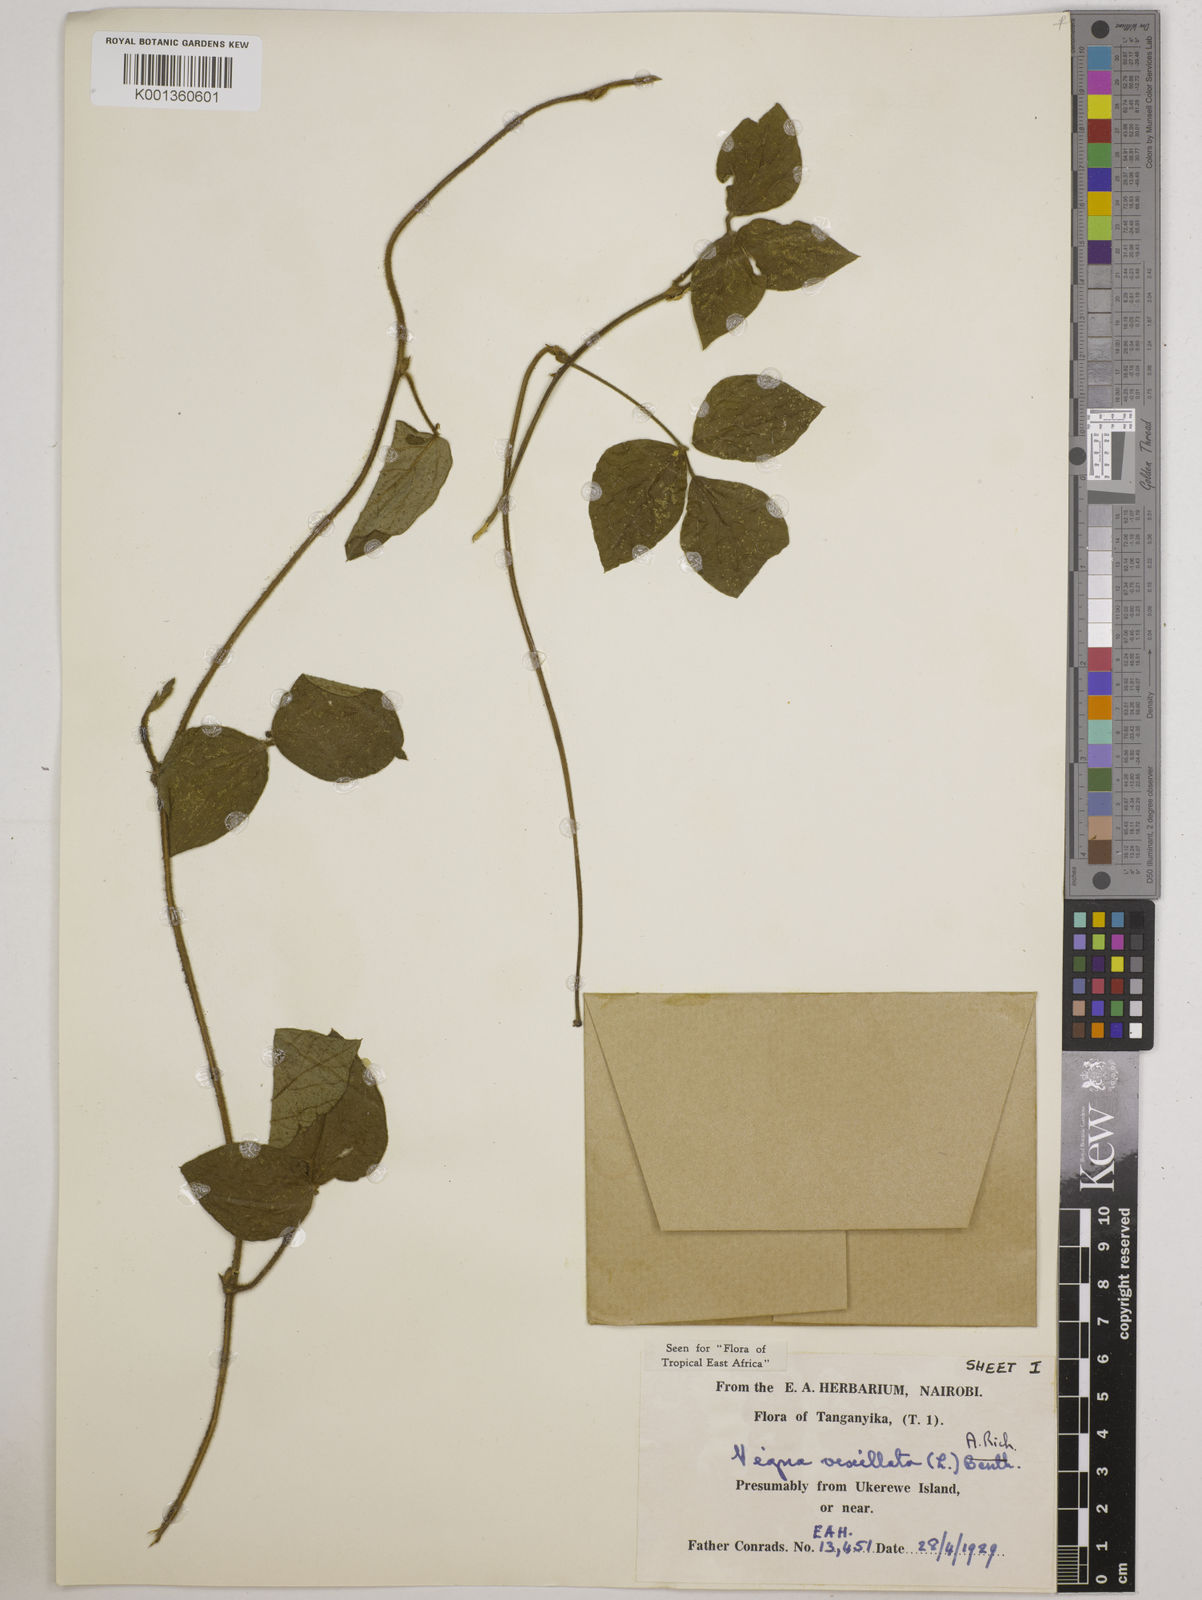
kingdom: Plantae
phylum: Tracheophyta
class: Magnoliopsida
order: Fabales
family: Fabaceae
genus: Vigna
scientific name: Vigna vexillata
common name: Zombi pea
